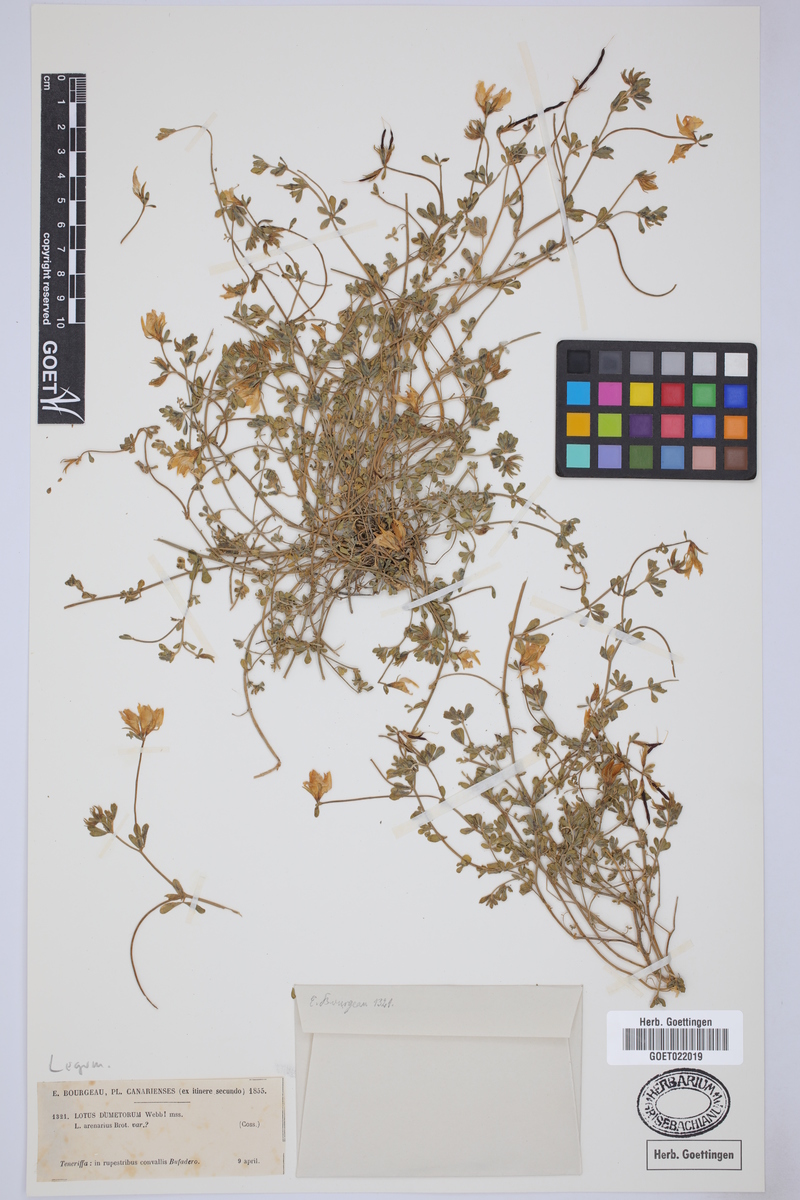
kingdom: Plantae
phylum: Tracheophyta
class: Magnoliopsida
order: Fabales
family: Fabaceae
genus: Lotus
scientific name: Lotus dumetorum
